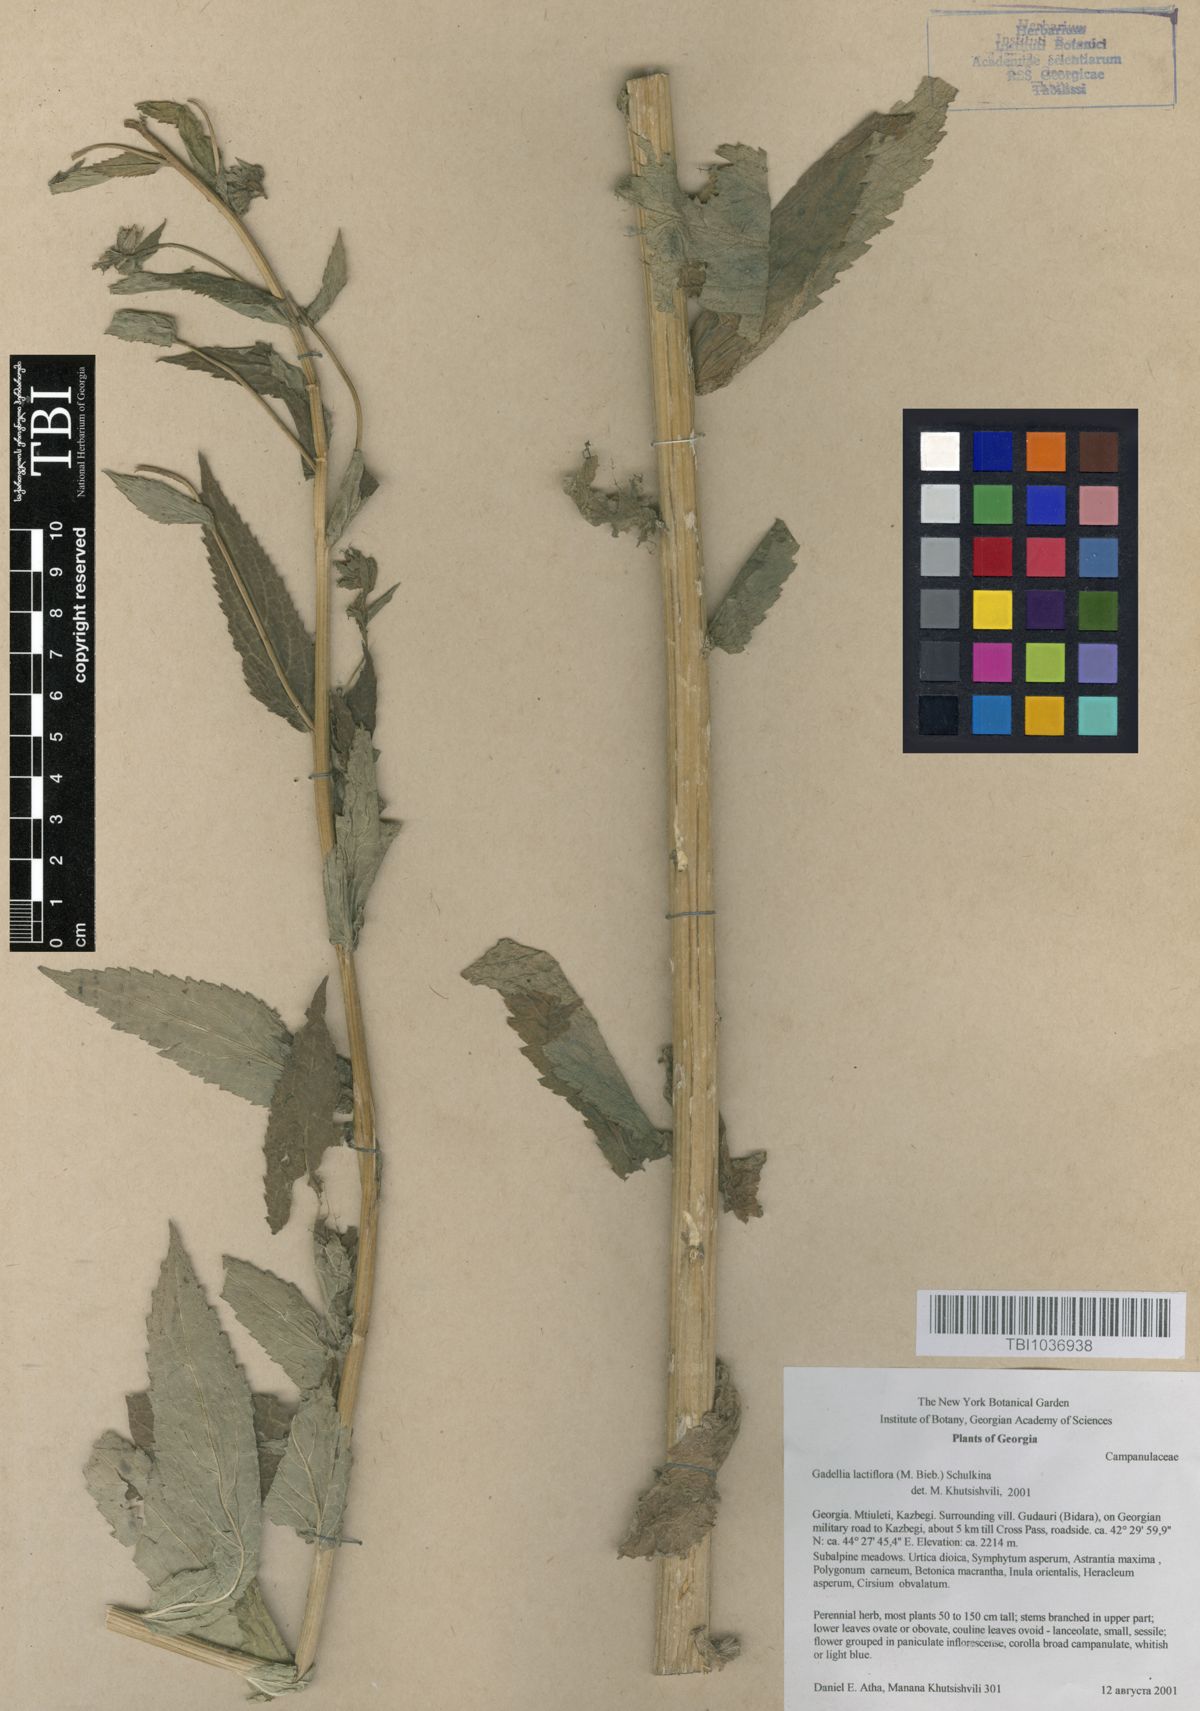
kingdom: Plantae
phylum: Tracheophyta
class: Magnoliopsida
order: Asterales
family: Campanulaceae
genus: Campanula
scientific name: Campanula lactiflora
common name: Milky bellflower
